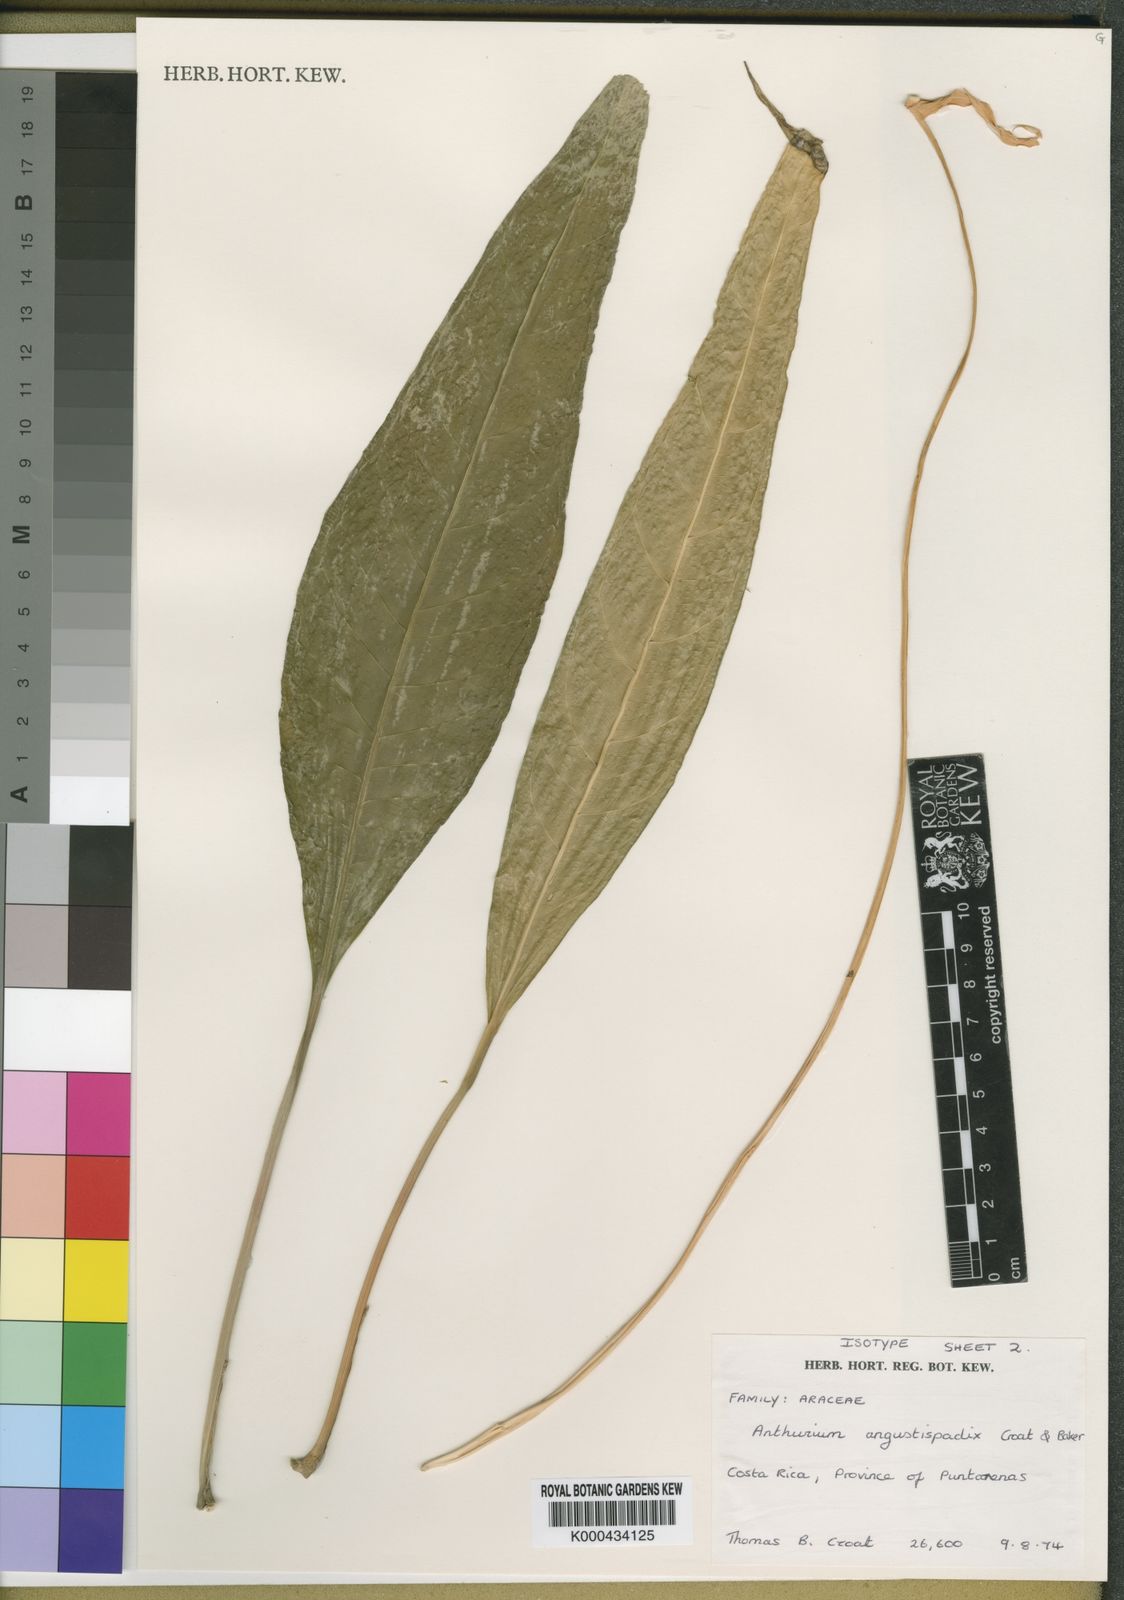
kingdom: Plantae
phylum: Tracheophyta
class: Liliopsida
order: Alismatales
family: Araceae
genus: Anthurium
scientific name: Anthurium angustispadix
